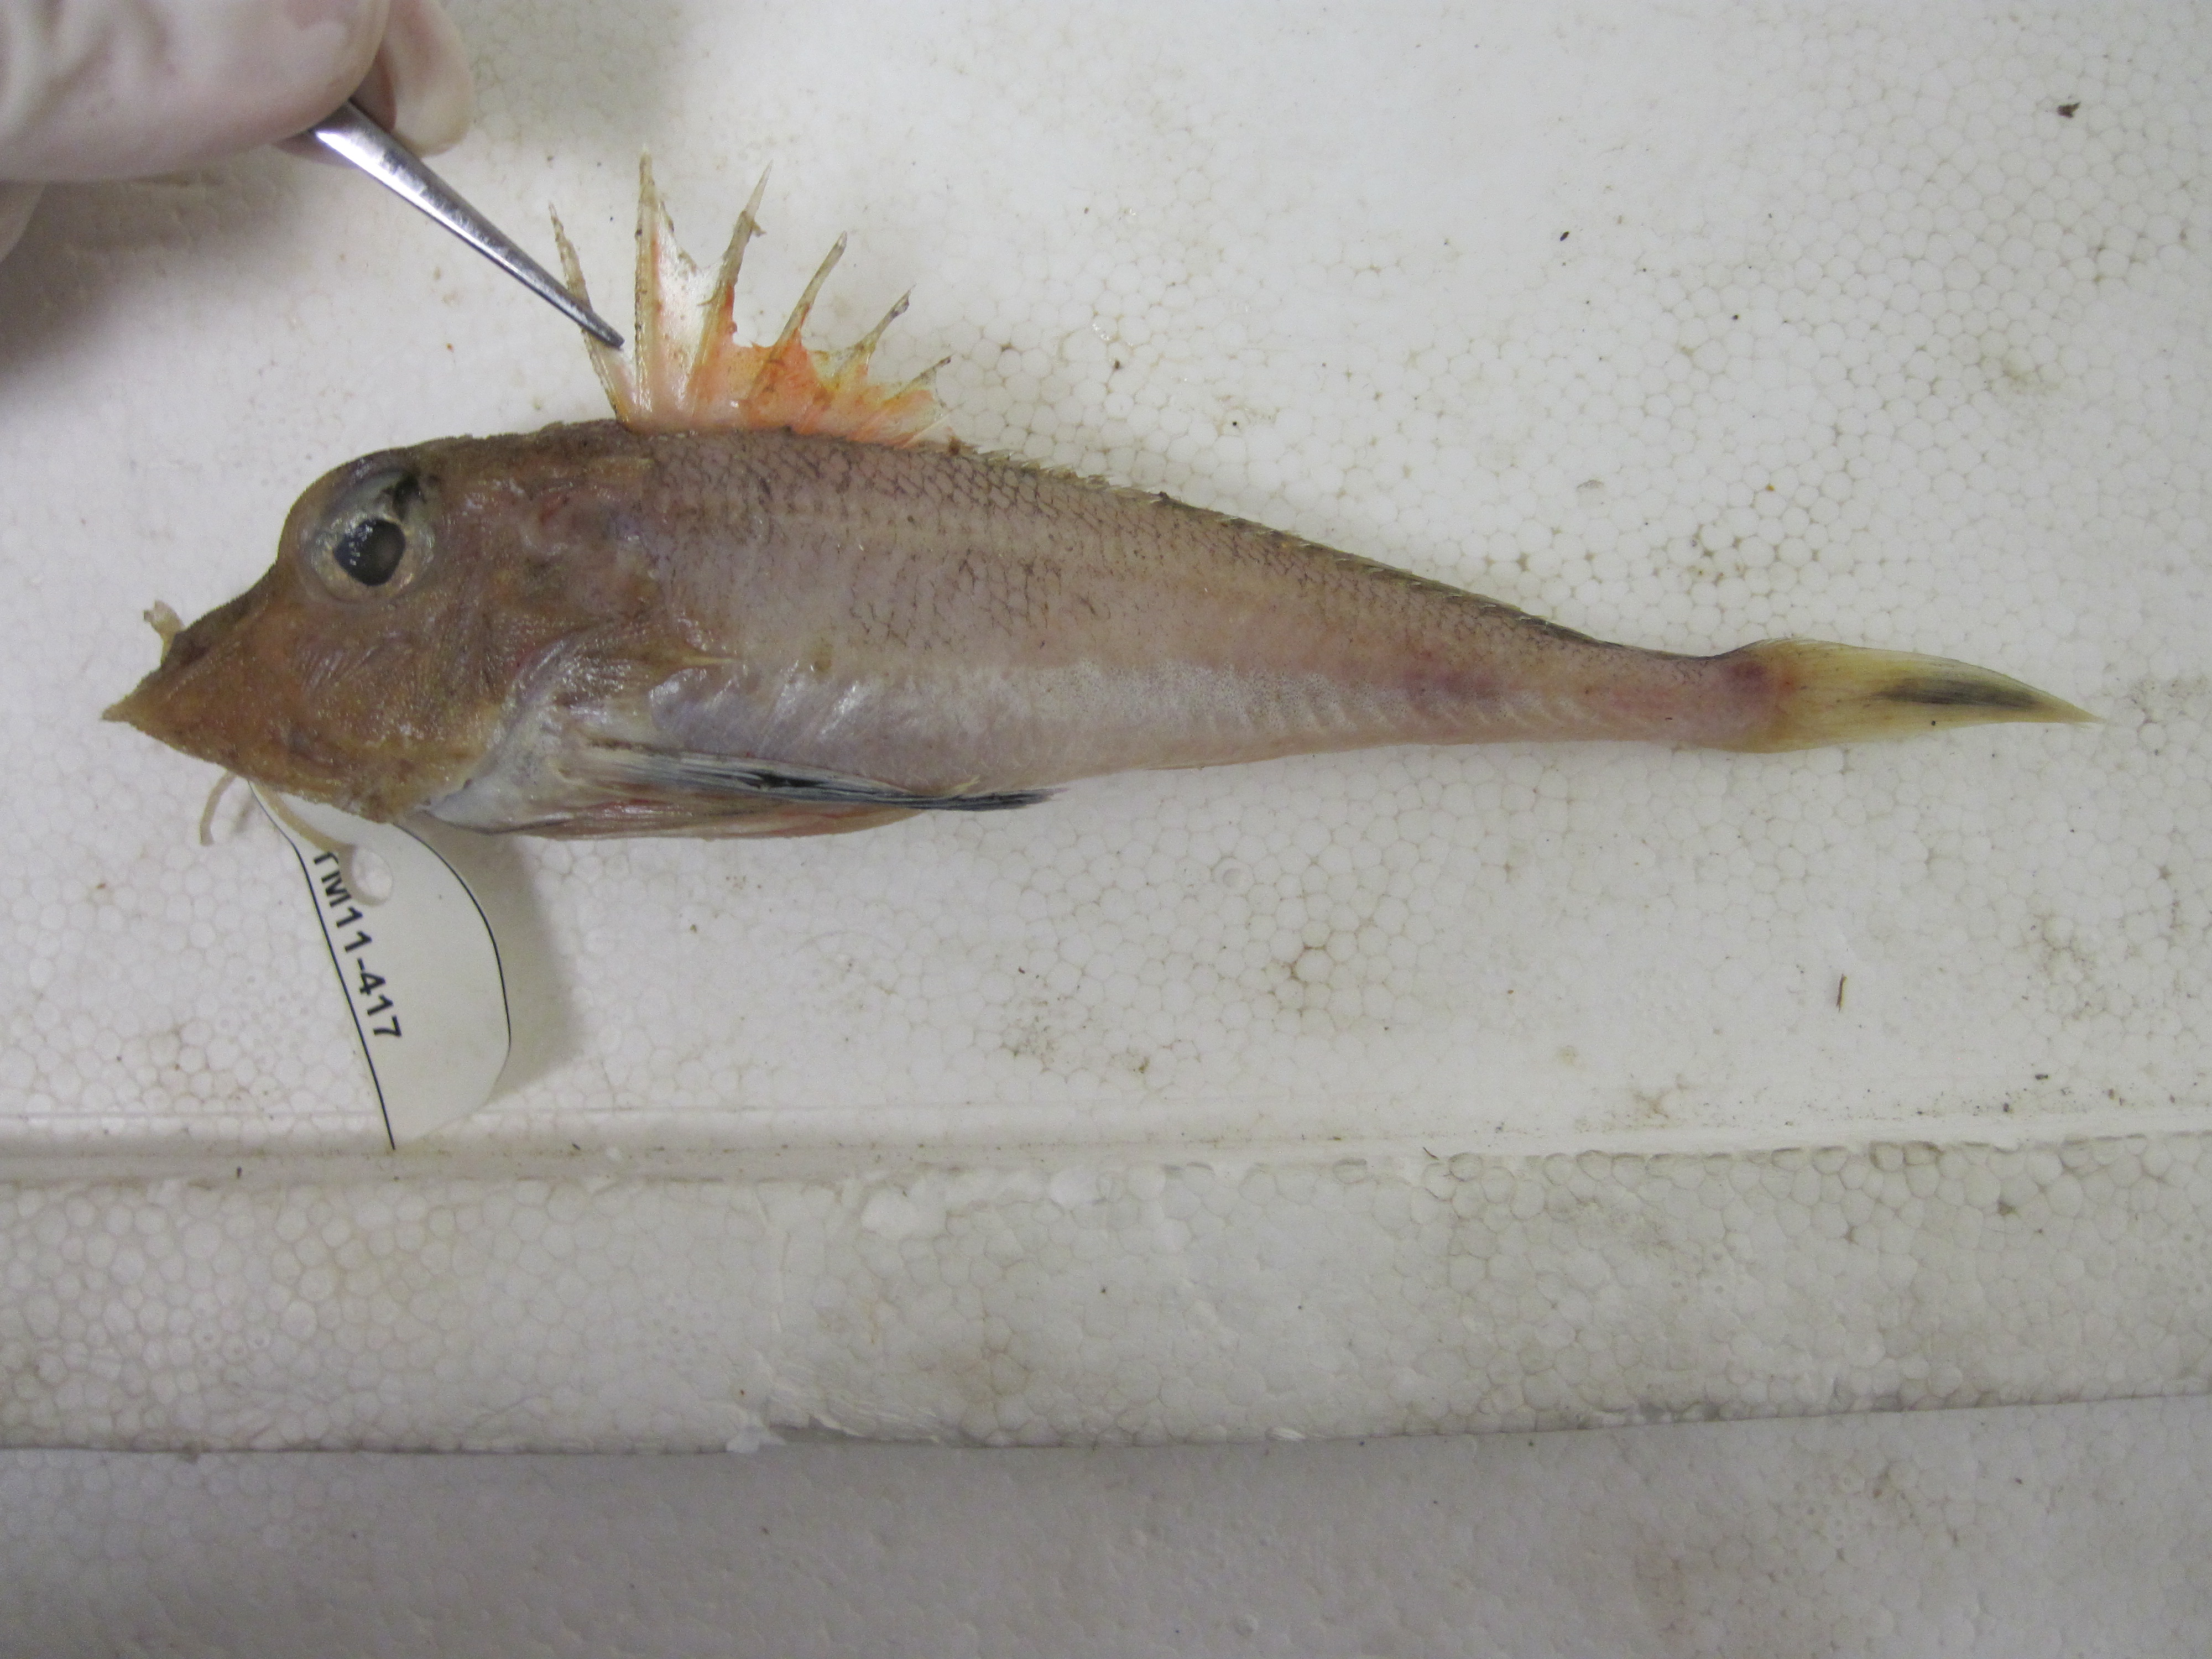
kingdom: Animalia
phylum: Chordata
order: Scorpaeniformes
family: Triglidae
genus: Lepidotrigla
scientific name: Lepidotrigla multispinosa
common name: Spiny gurnard
